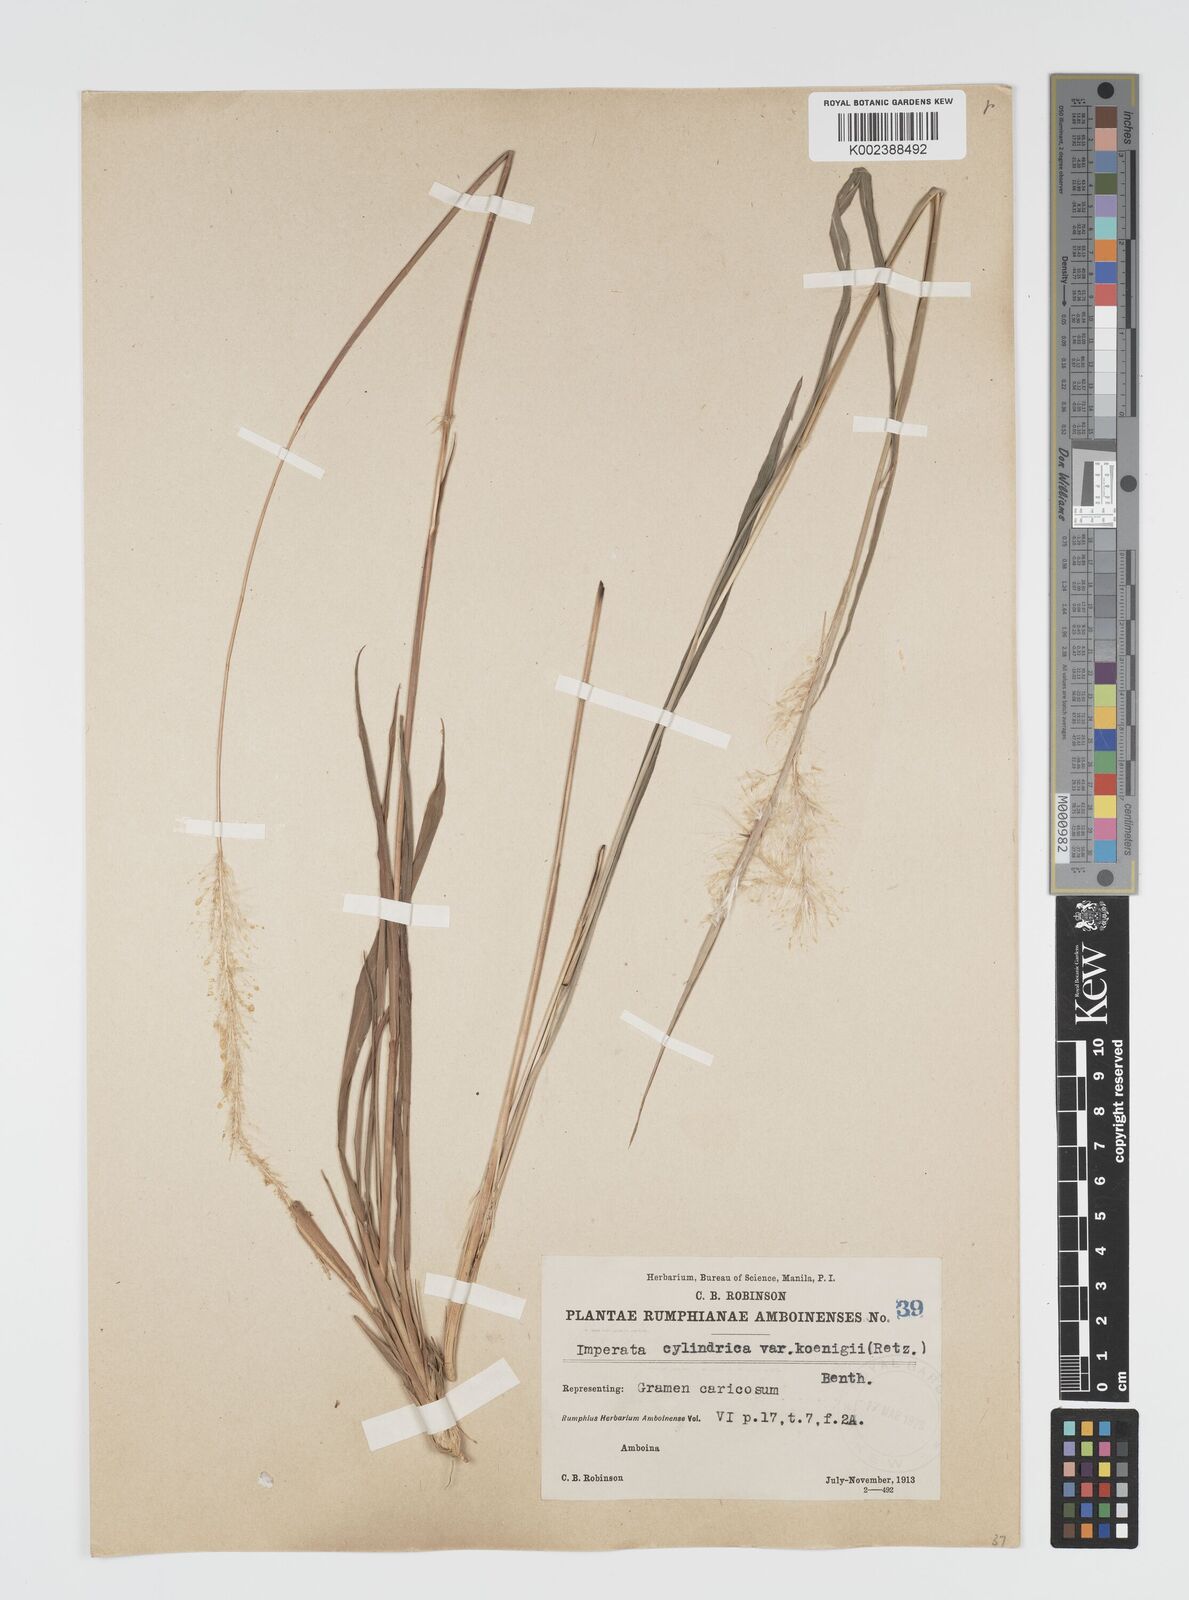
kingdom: Plantae
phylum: Tracheophyta
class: Liliopsida
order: Poales
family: Poaceae
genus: Imperata
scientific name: Imperata cylindrica
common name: Cogongrass
